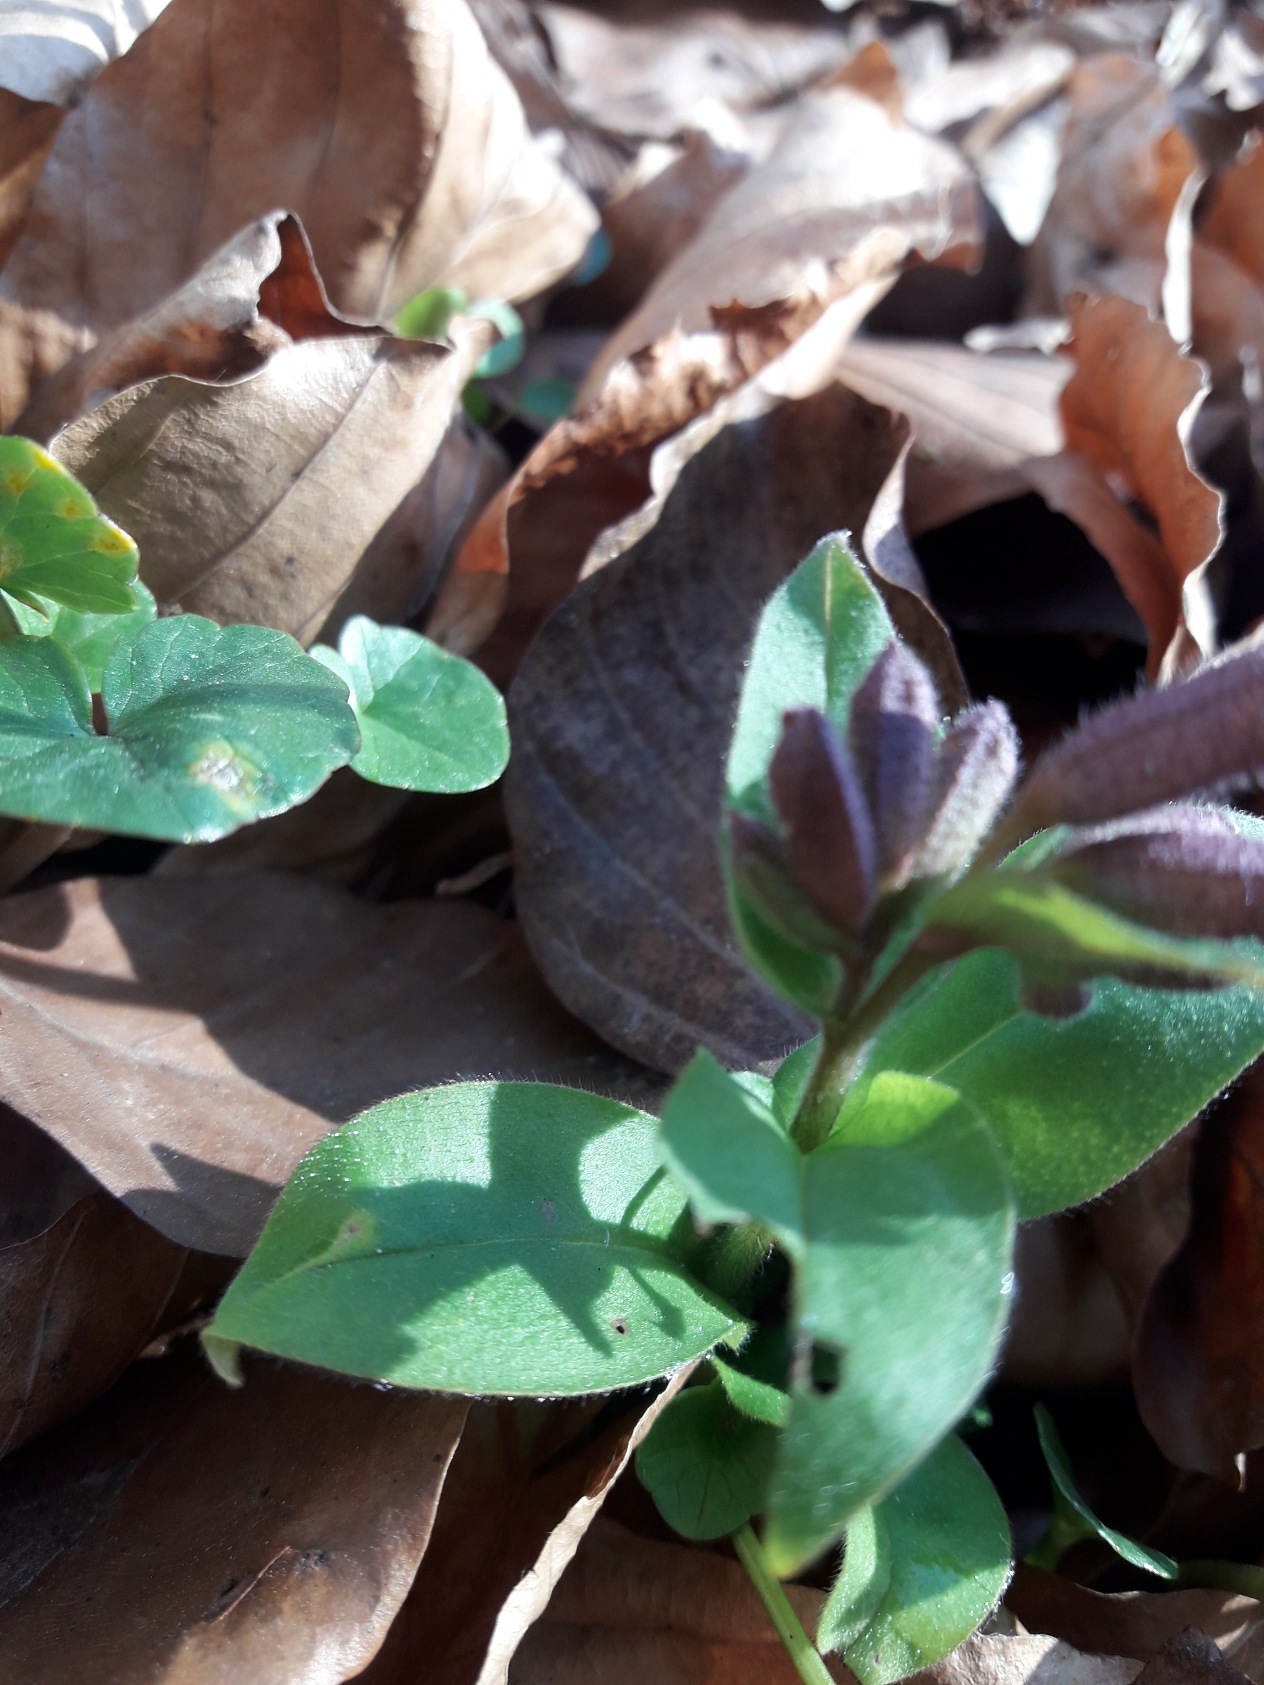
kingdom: Plantae
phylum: Tracheophyta
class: Magnoliopsida
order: Boraginales
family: Boraginaceae
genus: Pulmonaria
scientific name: Pulmonaria obscura
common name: Almindelig lungeurt
